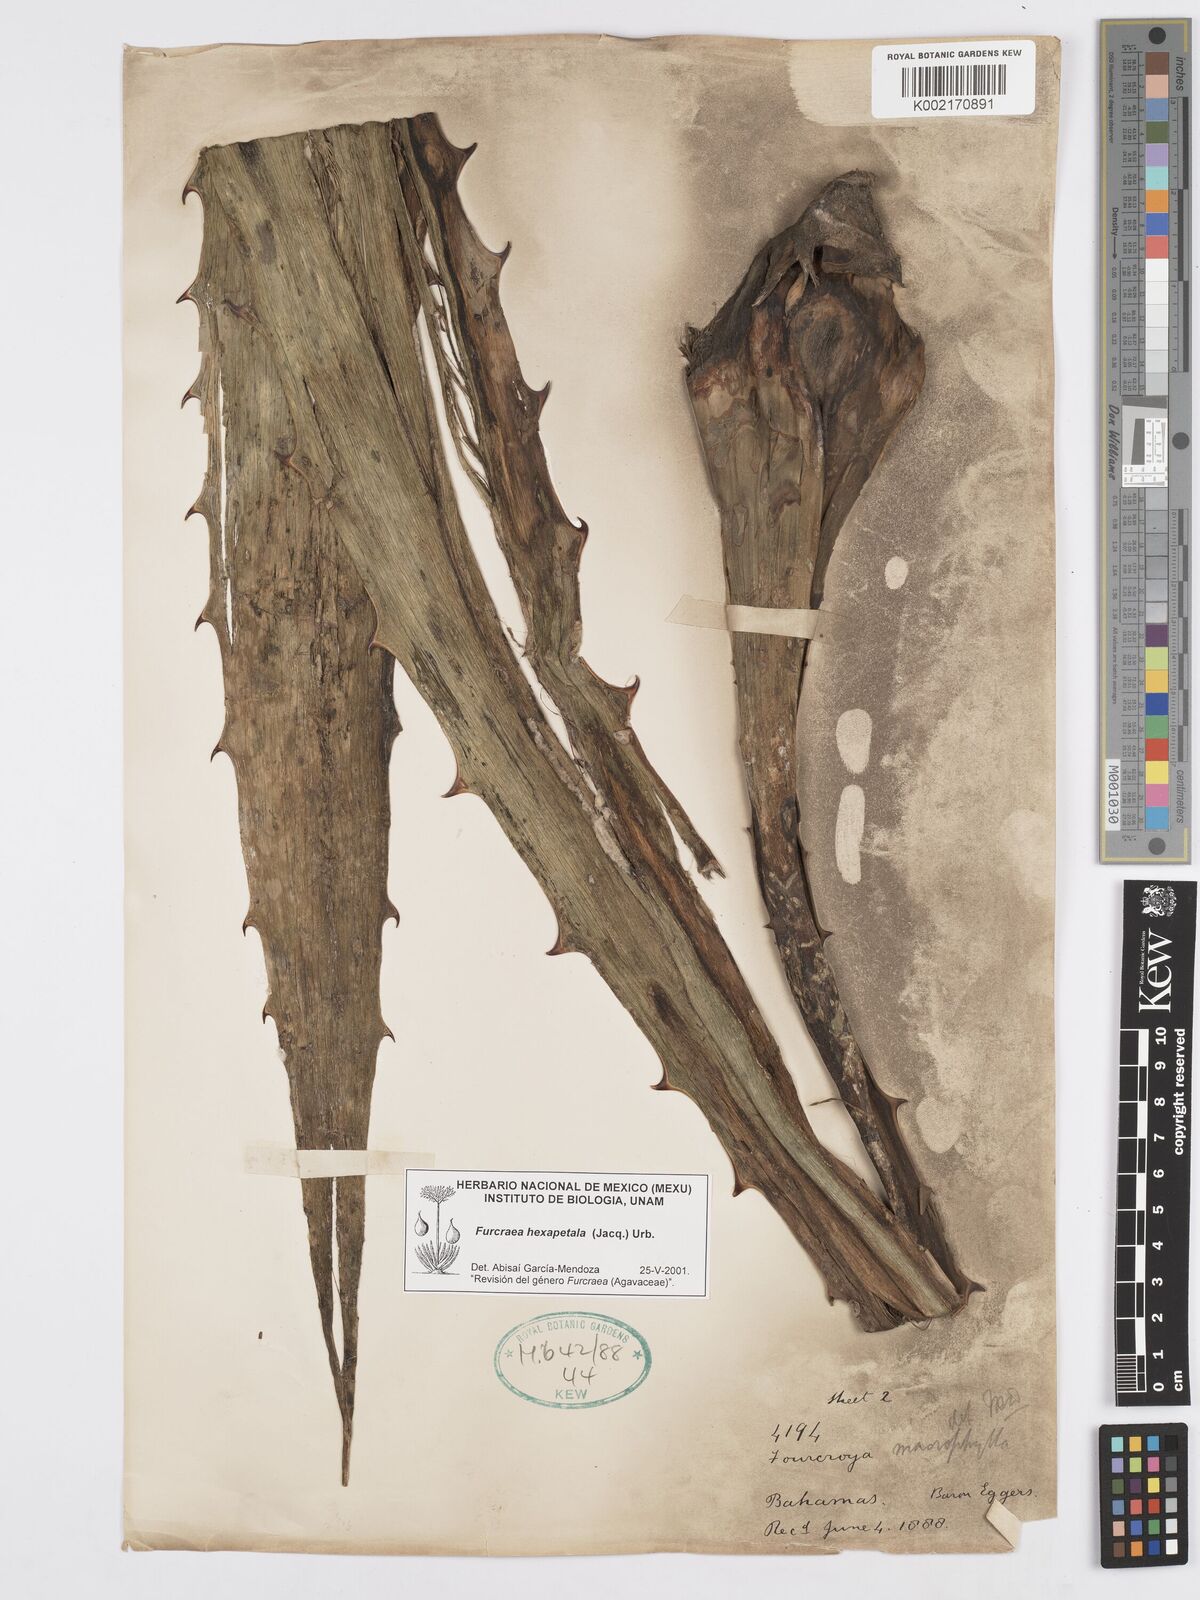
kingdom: Plantae
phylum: Tracheophyta
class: Liliopsida
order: Asparagales
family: Asparagaceae
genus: Furcraea
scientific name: Furcraea hexapetala
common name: Cuban-hemp
